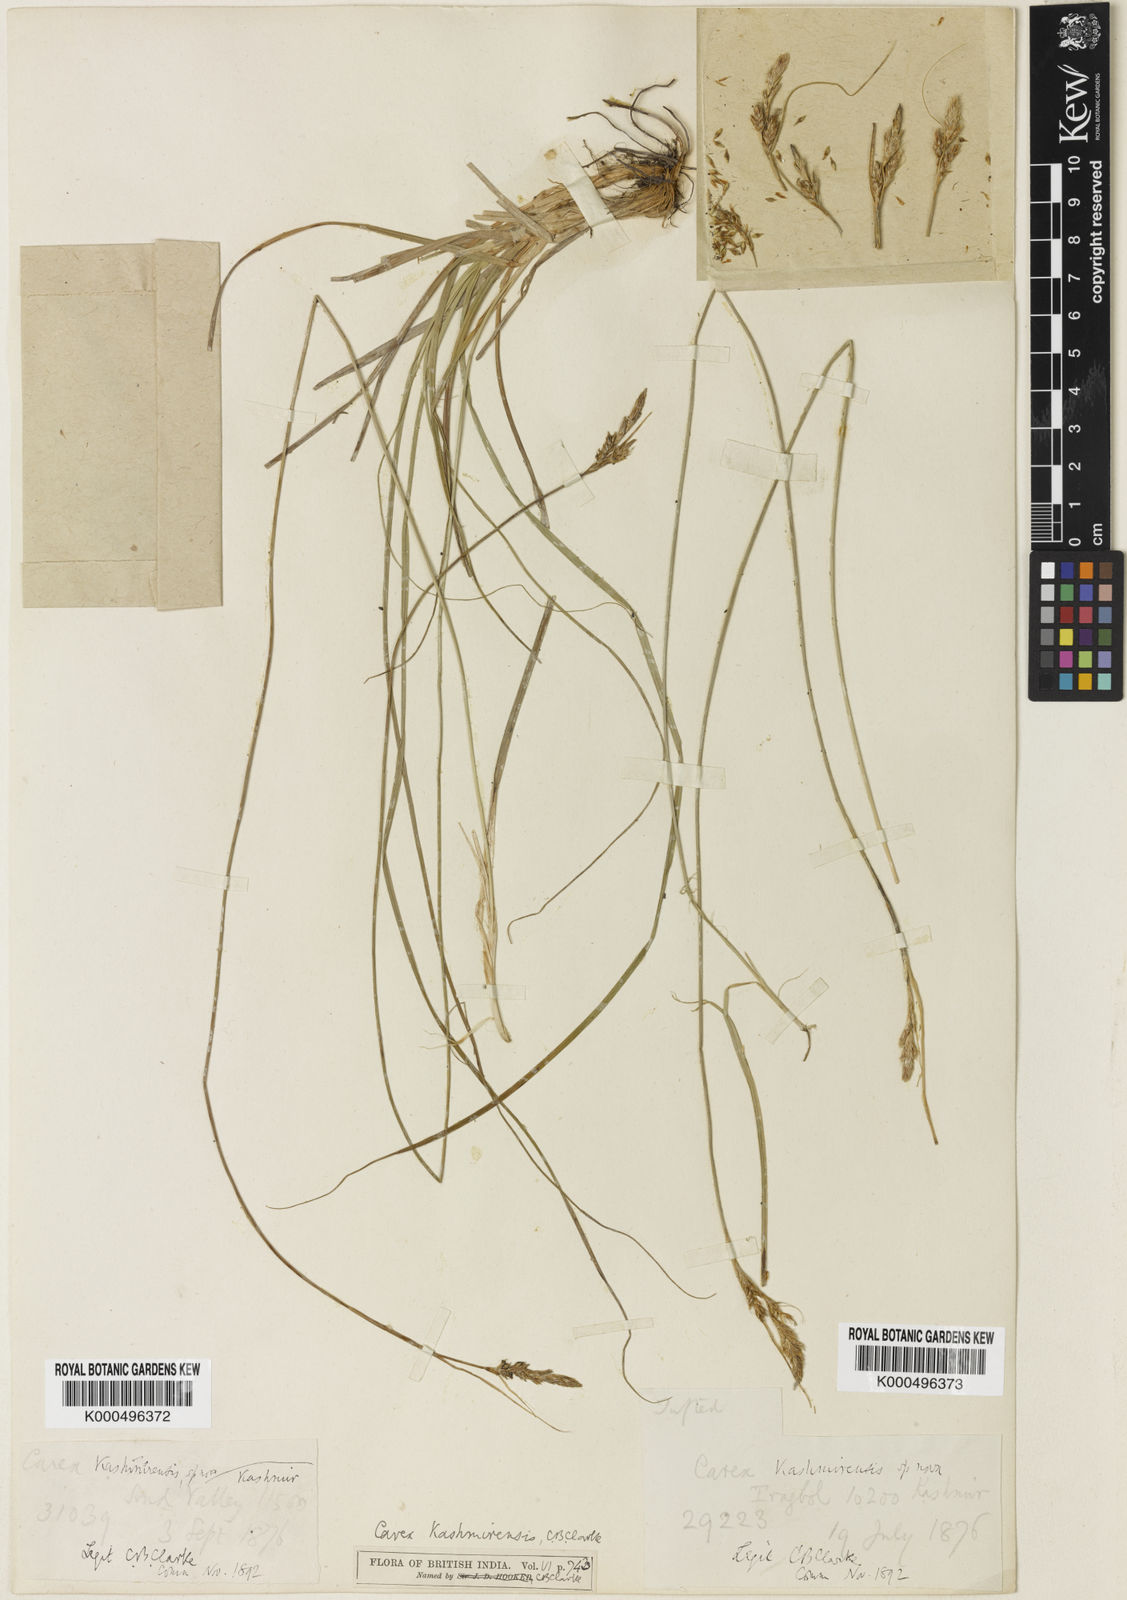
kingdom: Plantae
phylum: Tracheophyta
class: Liliopsida
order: Poales
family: Cyperaceae
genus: Carex
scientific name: Carex kashmirensis
